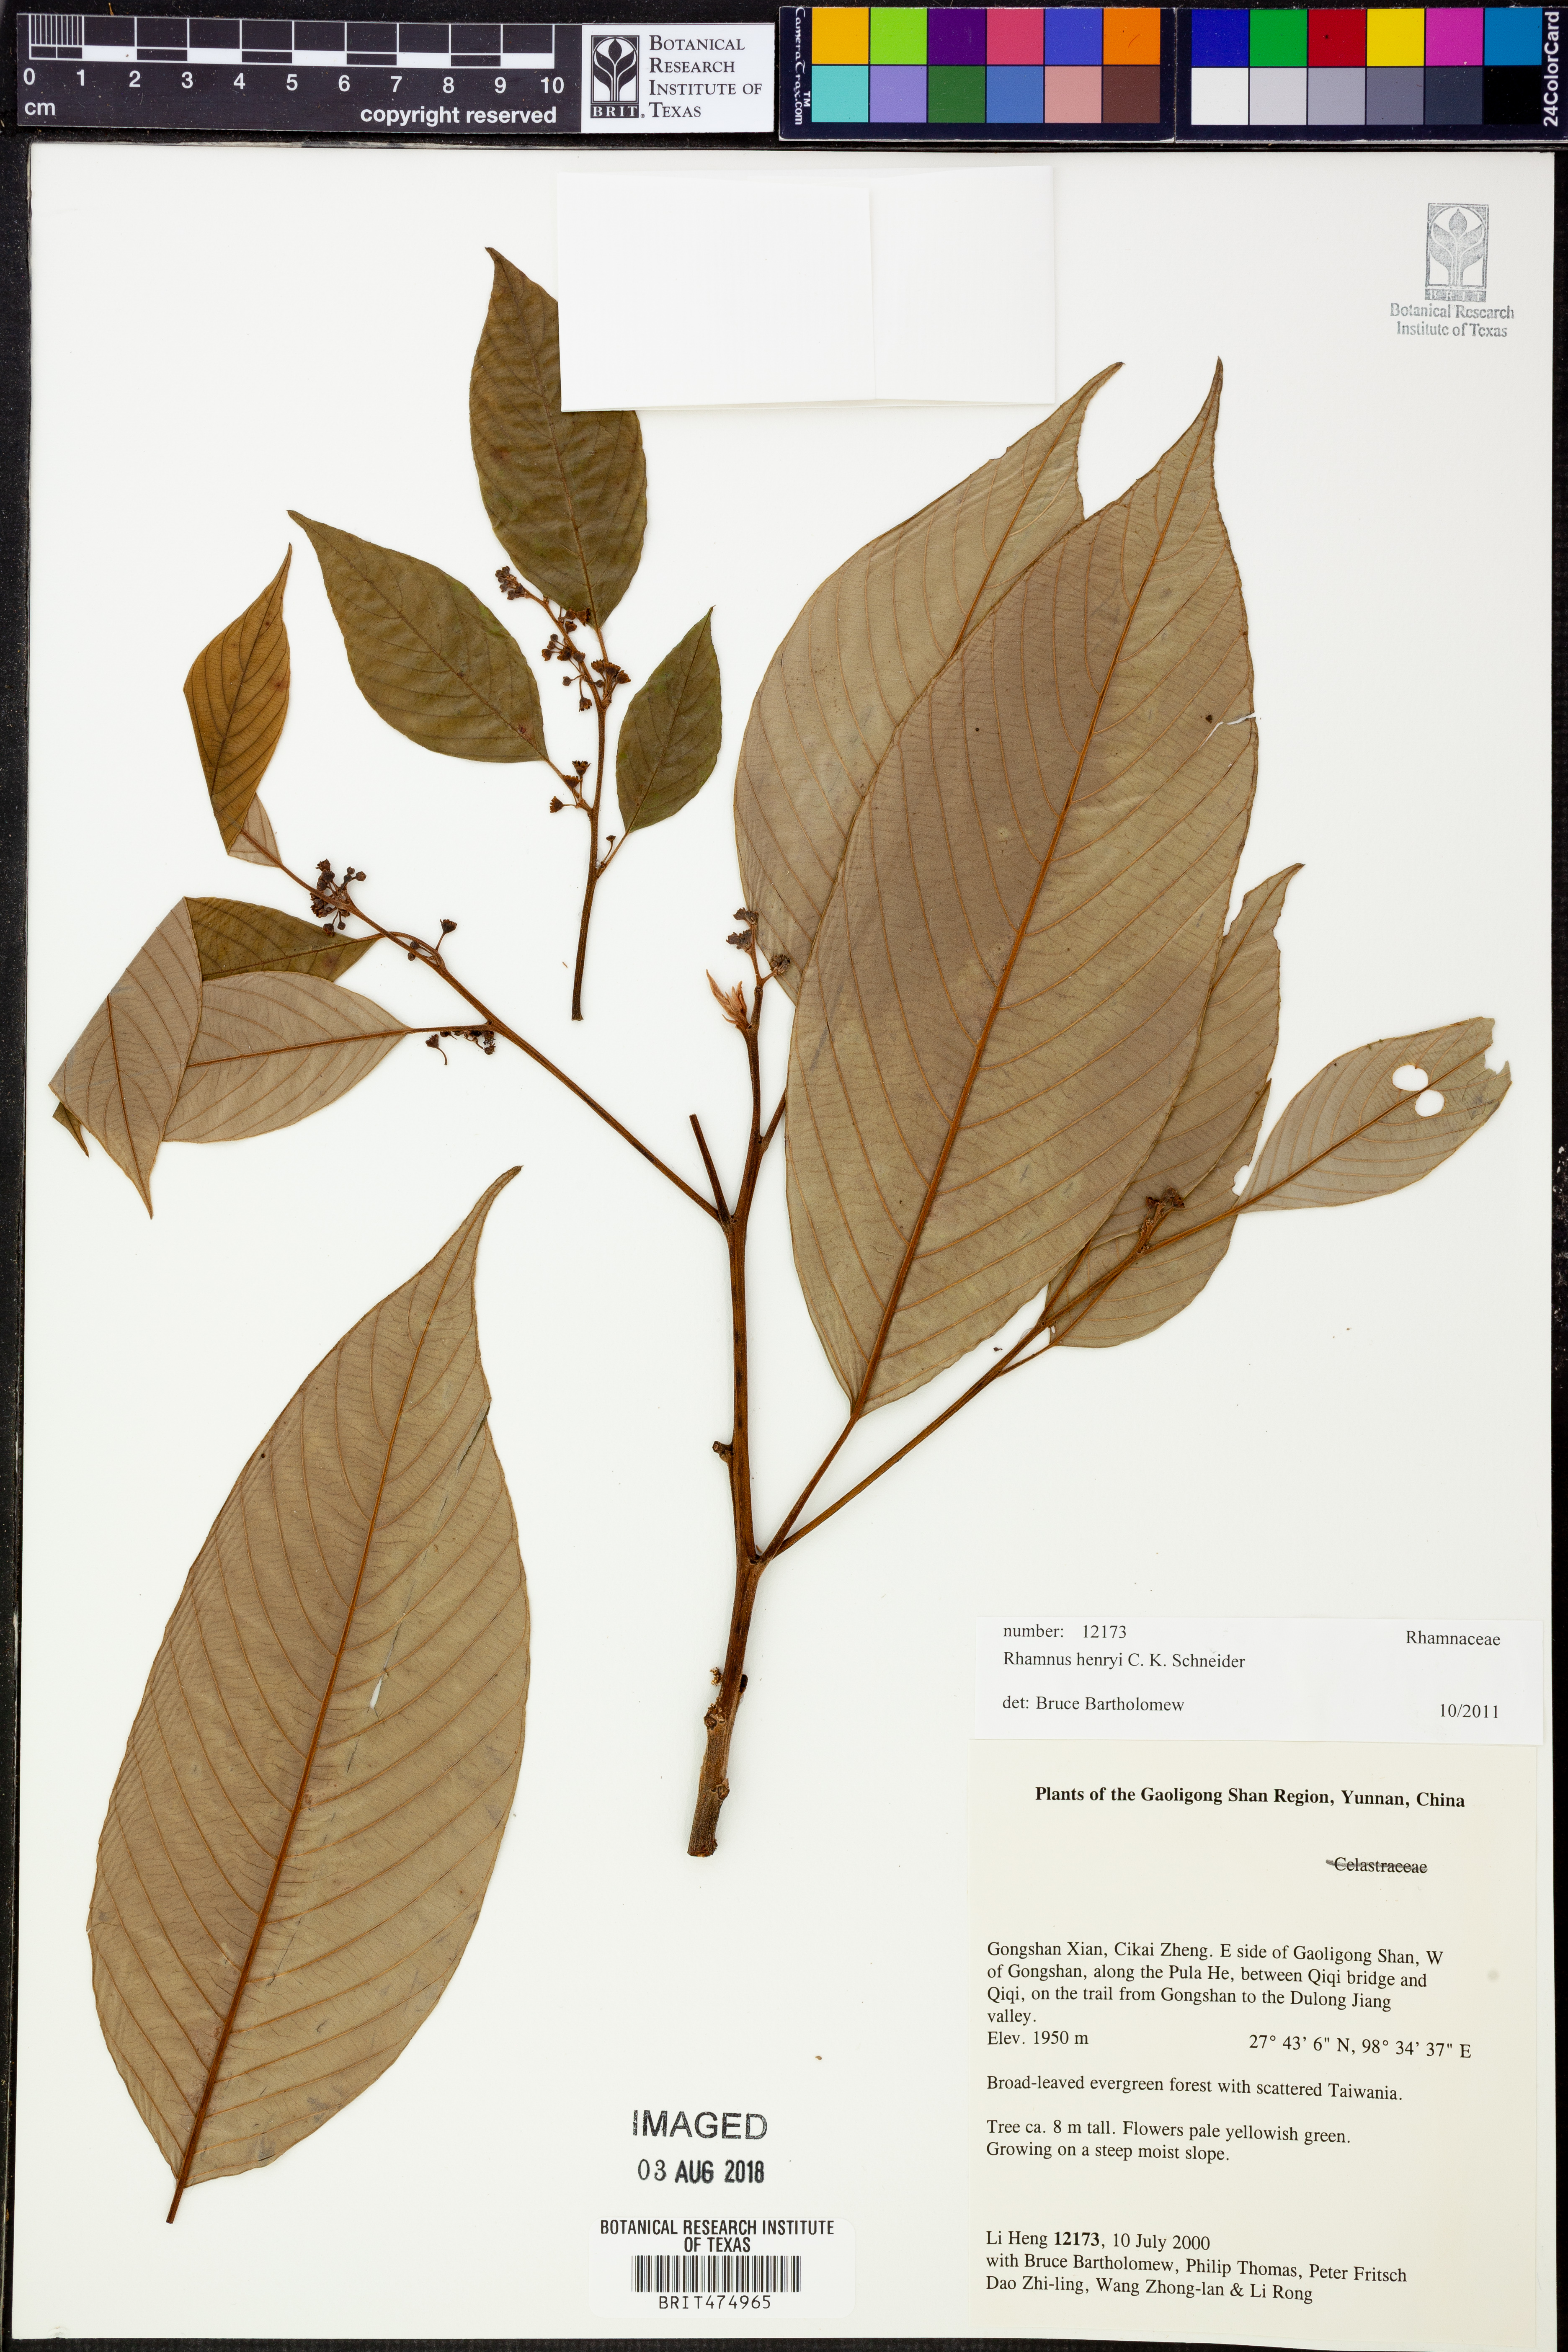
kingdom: Plantae
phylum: Tracheophyta
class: Magnoliopsida
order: Rosales
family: Rhamnaceae
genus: Frangula
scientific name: Frangula henryi
